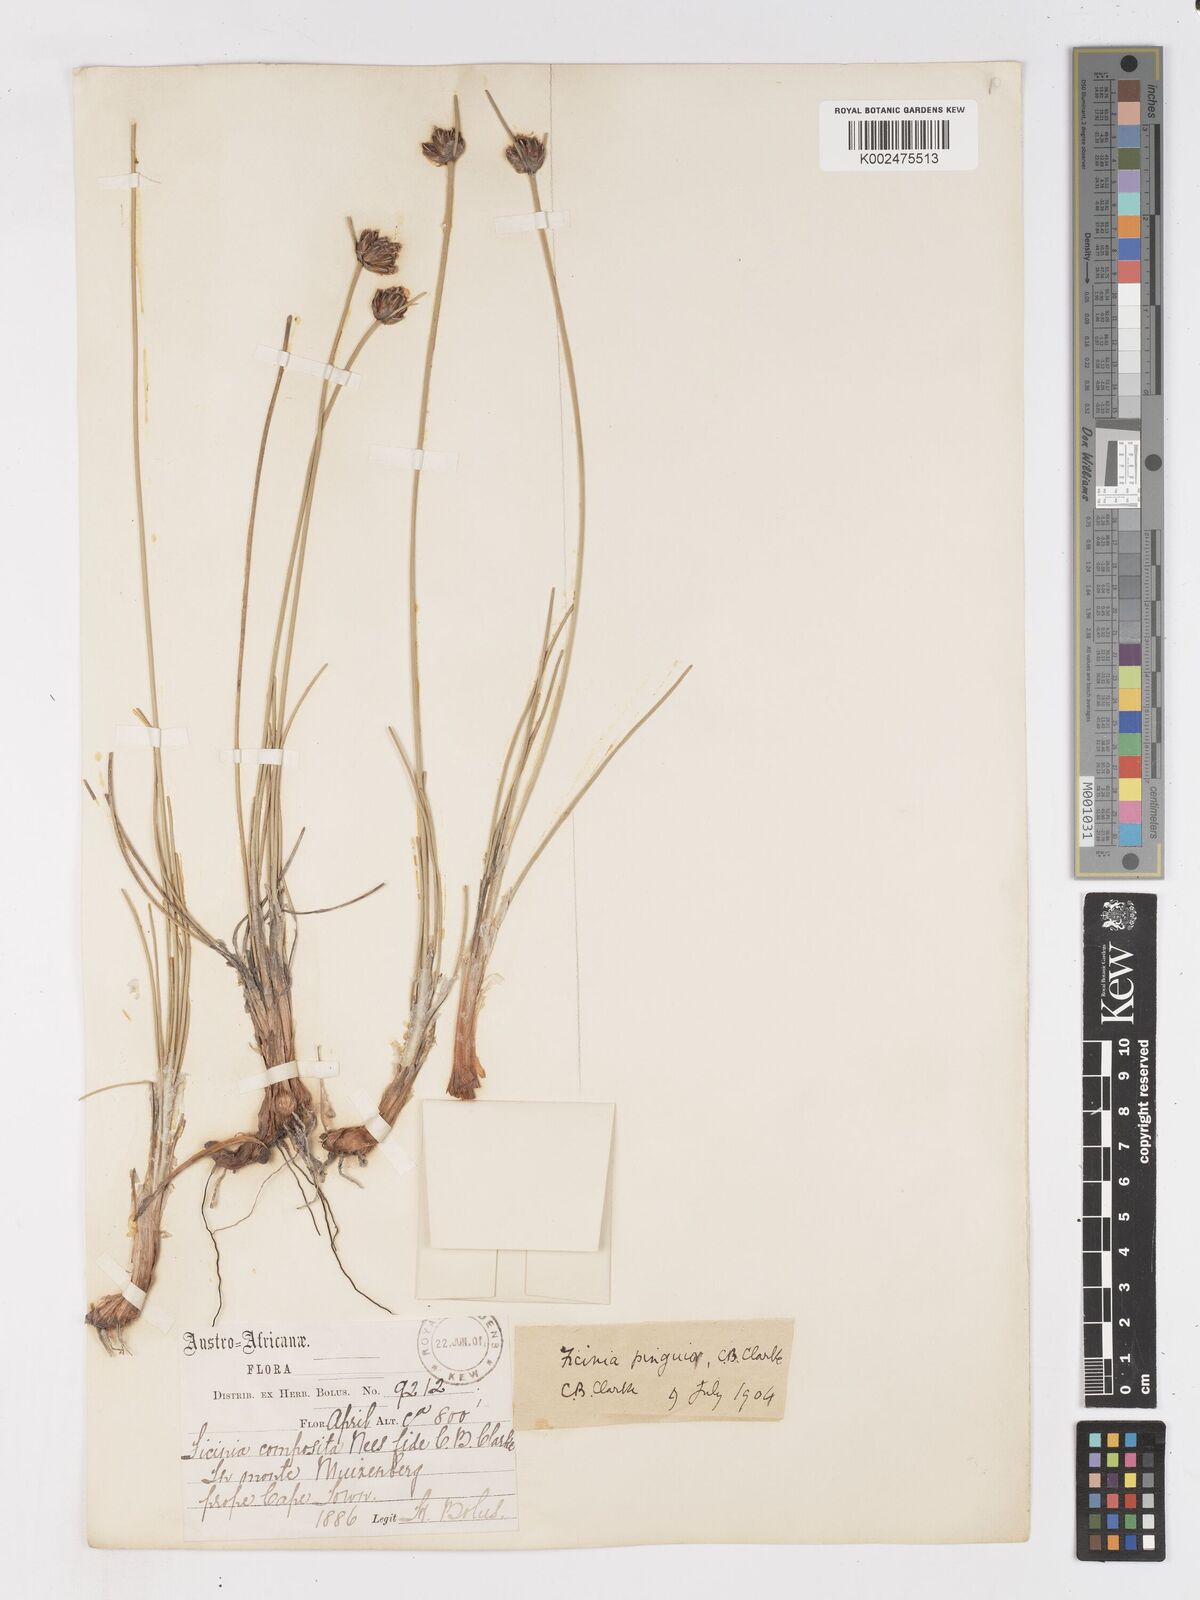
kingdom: Plantae
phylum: Tracheophyta
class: Liliopsida
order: Poales
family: Cyperaceae
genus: Ficinia
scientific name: Ficinia pinguior
